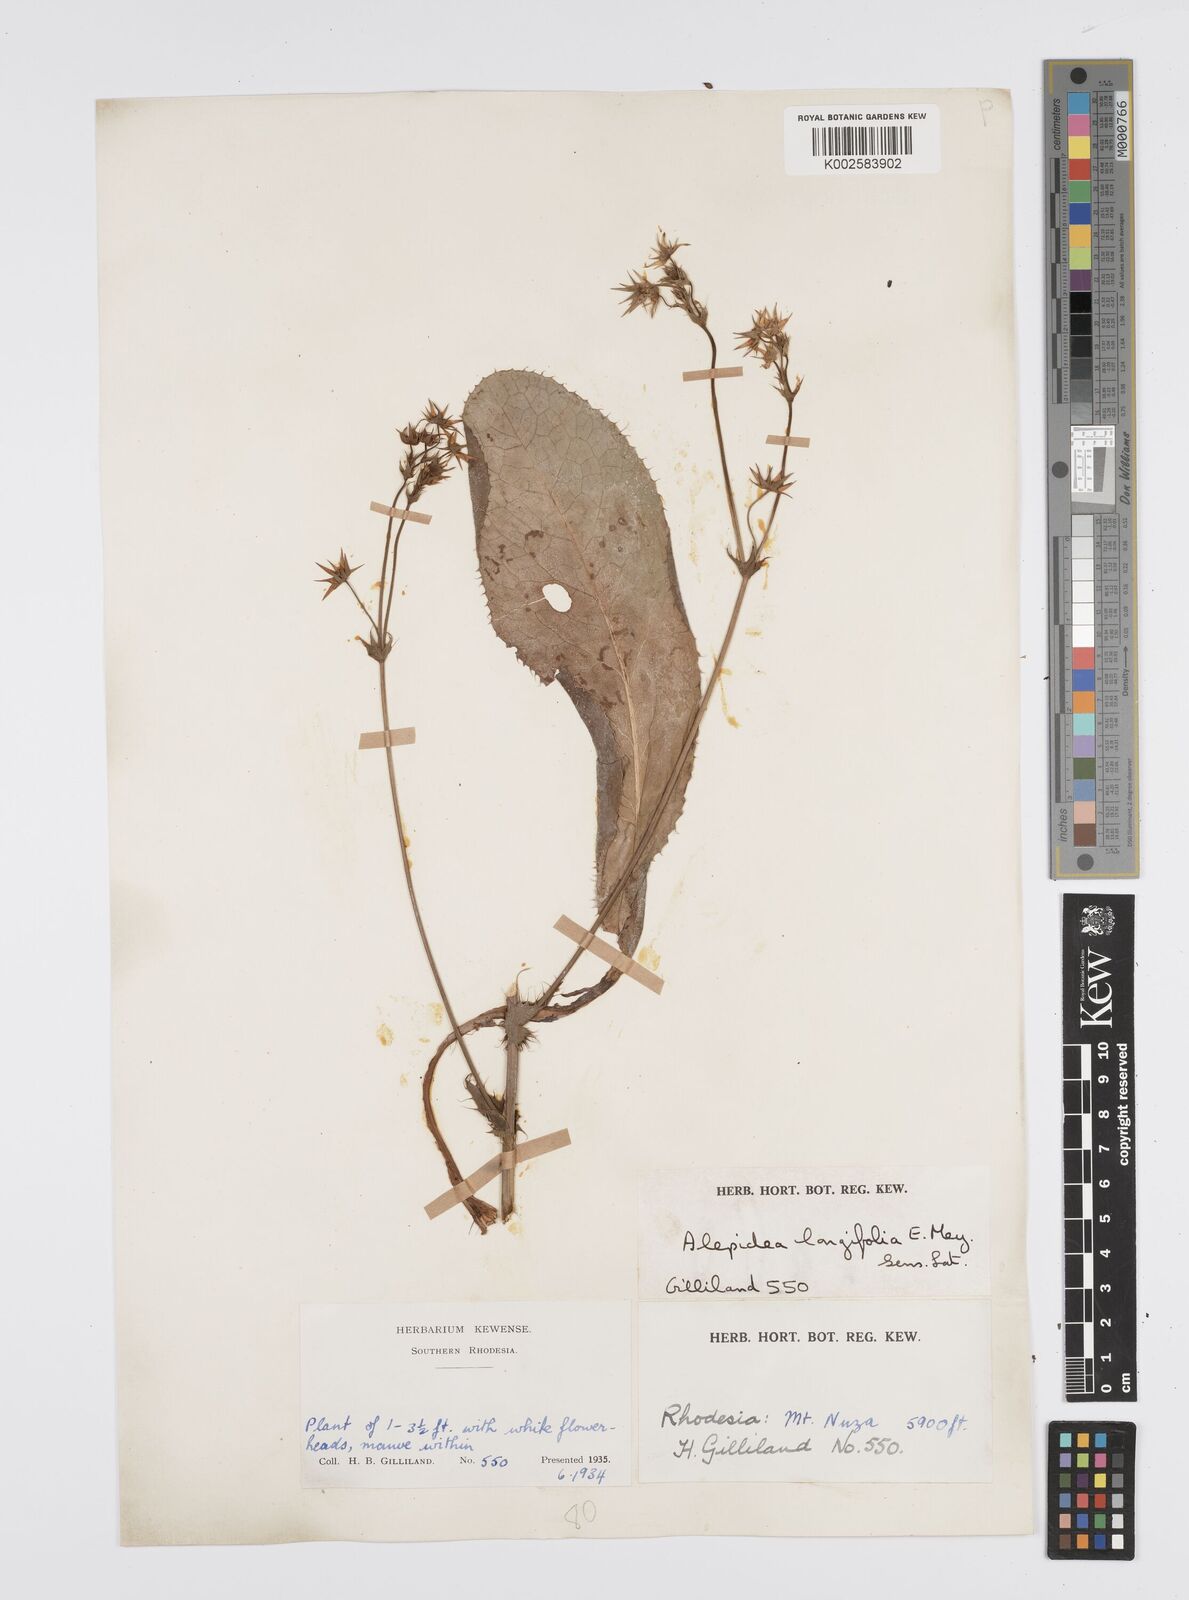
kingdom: Plantae
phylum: Tracheophyta
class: Magnoliopsida
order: Apiales
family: Apiaceae
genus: Alepidea
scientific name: Alepidea
